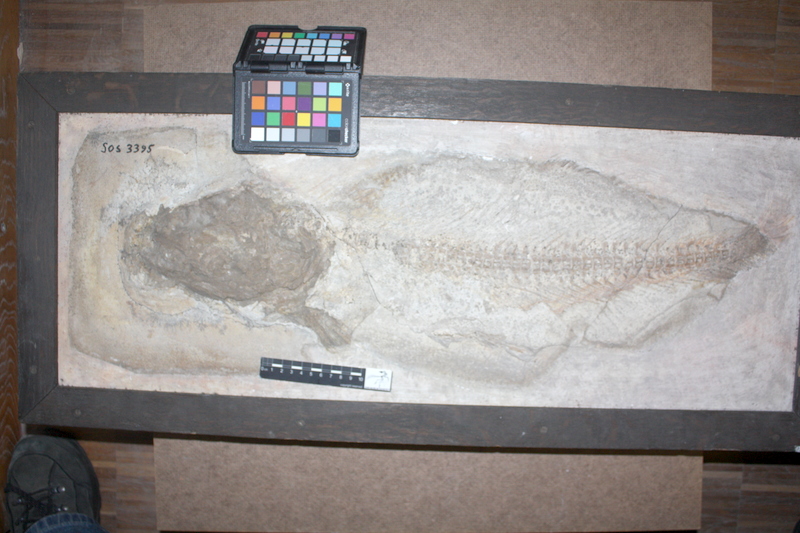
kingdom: Animalia
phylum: Chordata
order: Amiiformes
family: Ionoscopidae
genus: Ionoscopus
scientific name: Ionoscopus
